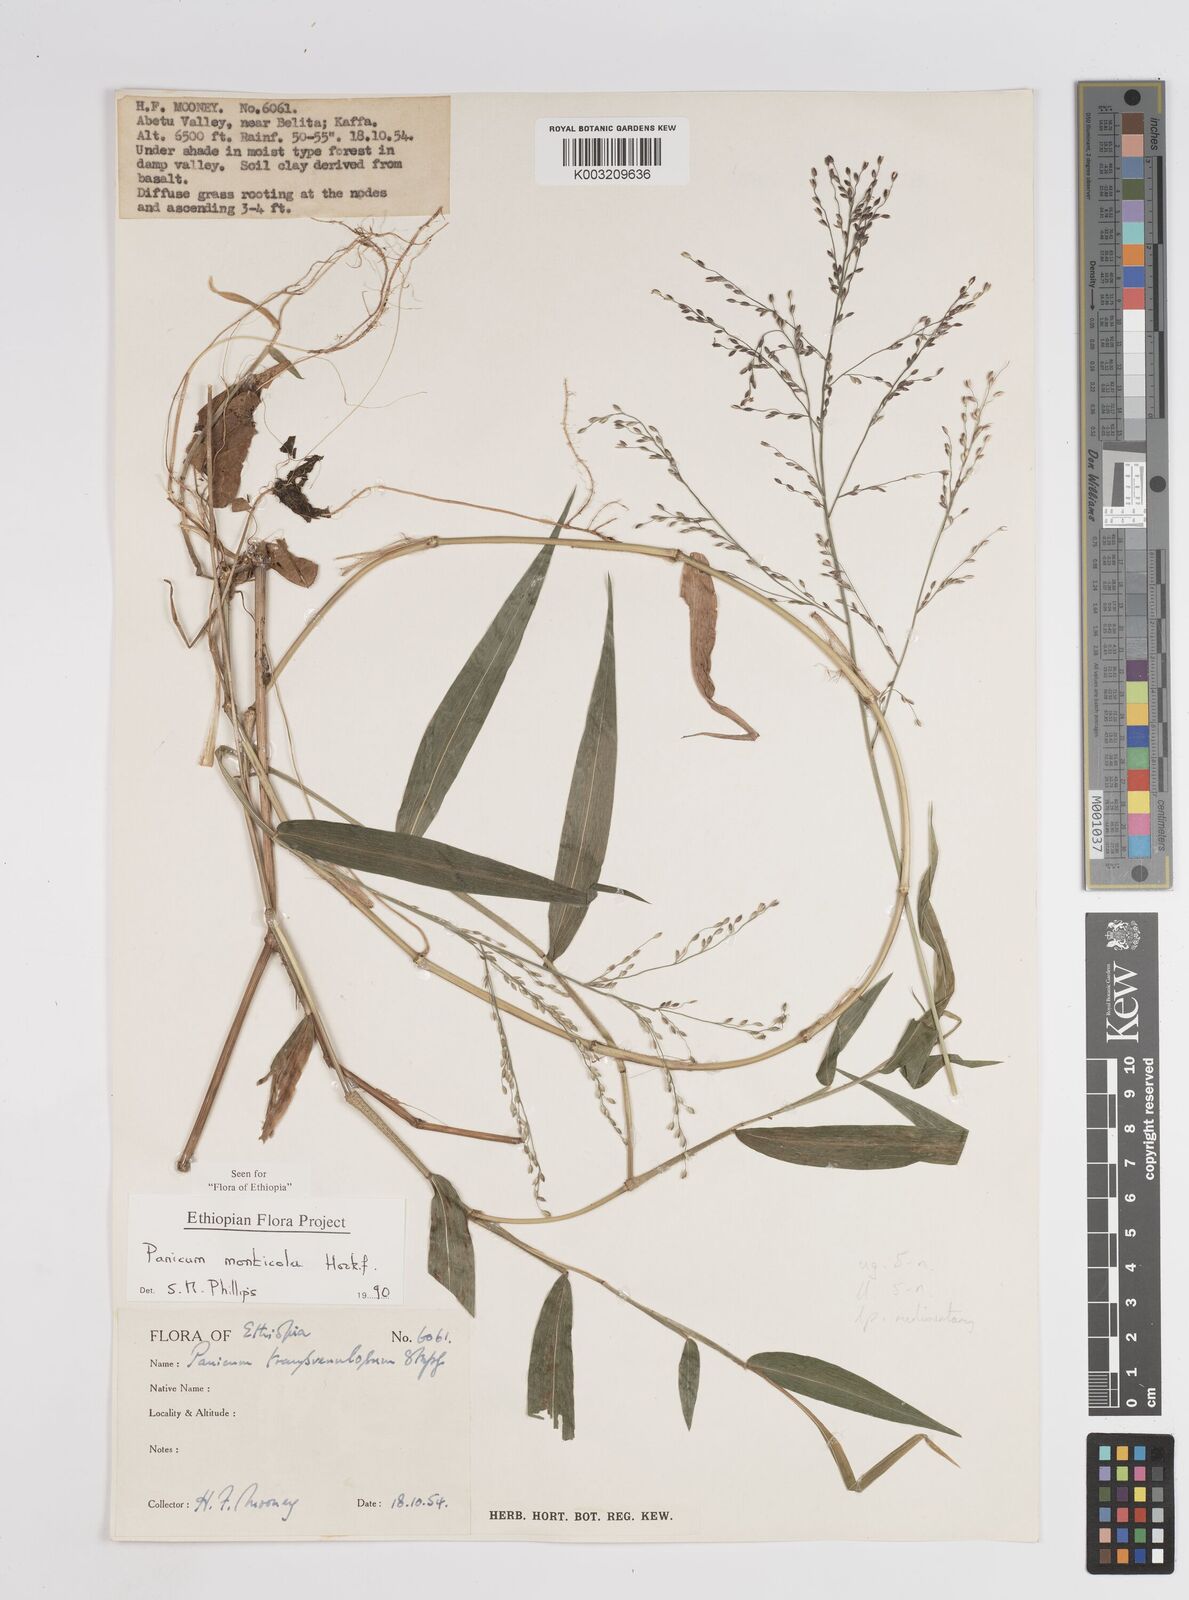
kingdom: Plantae
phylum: Tracheophyta
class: Liliopsida
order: Poales
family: Poaceae
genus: Panicum
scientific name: Panicum monticola
